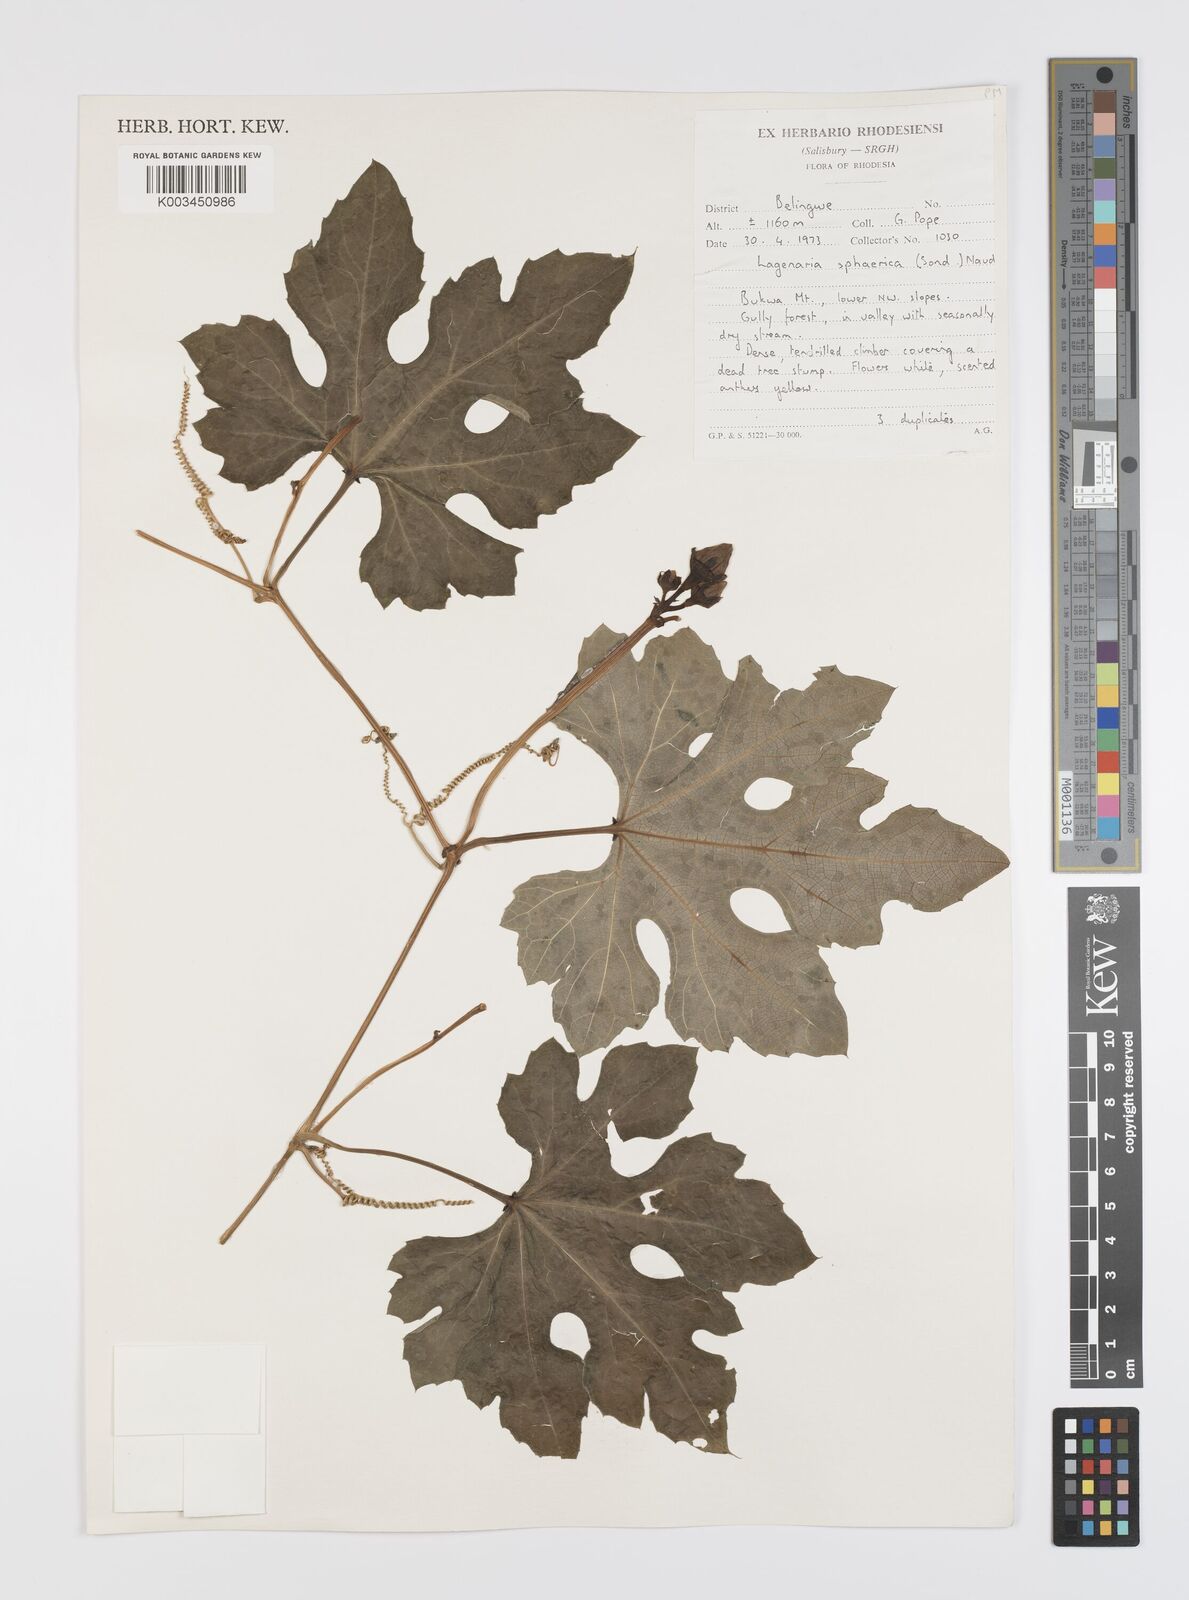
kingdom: Plantae
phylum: Tracheophyta
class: Magnoliopsida
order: Cucurbitales
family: Cucurbitaceae
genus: Lagenaria
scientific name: Lagenaria sphaerica
